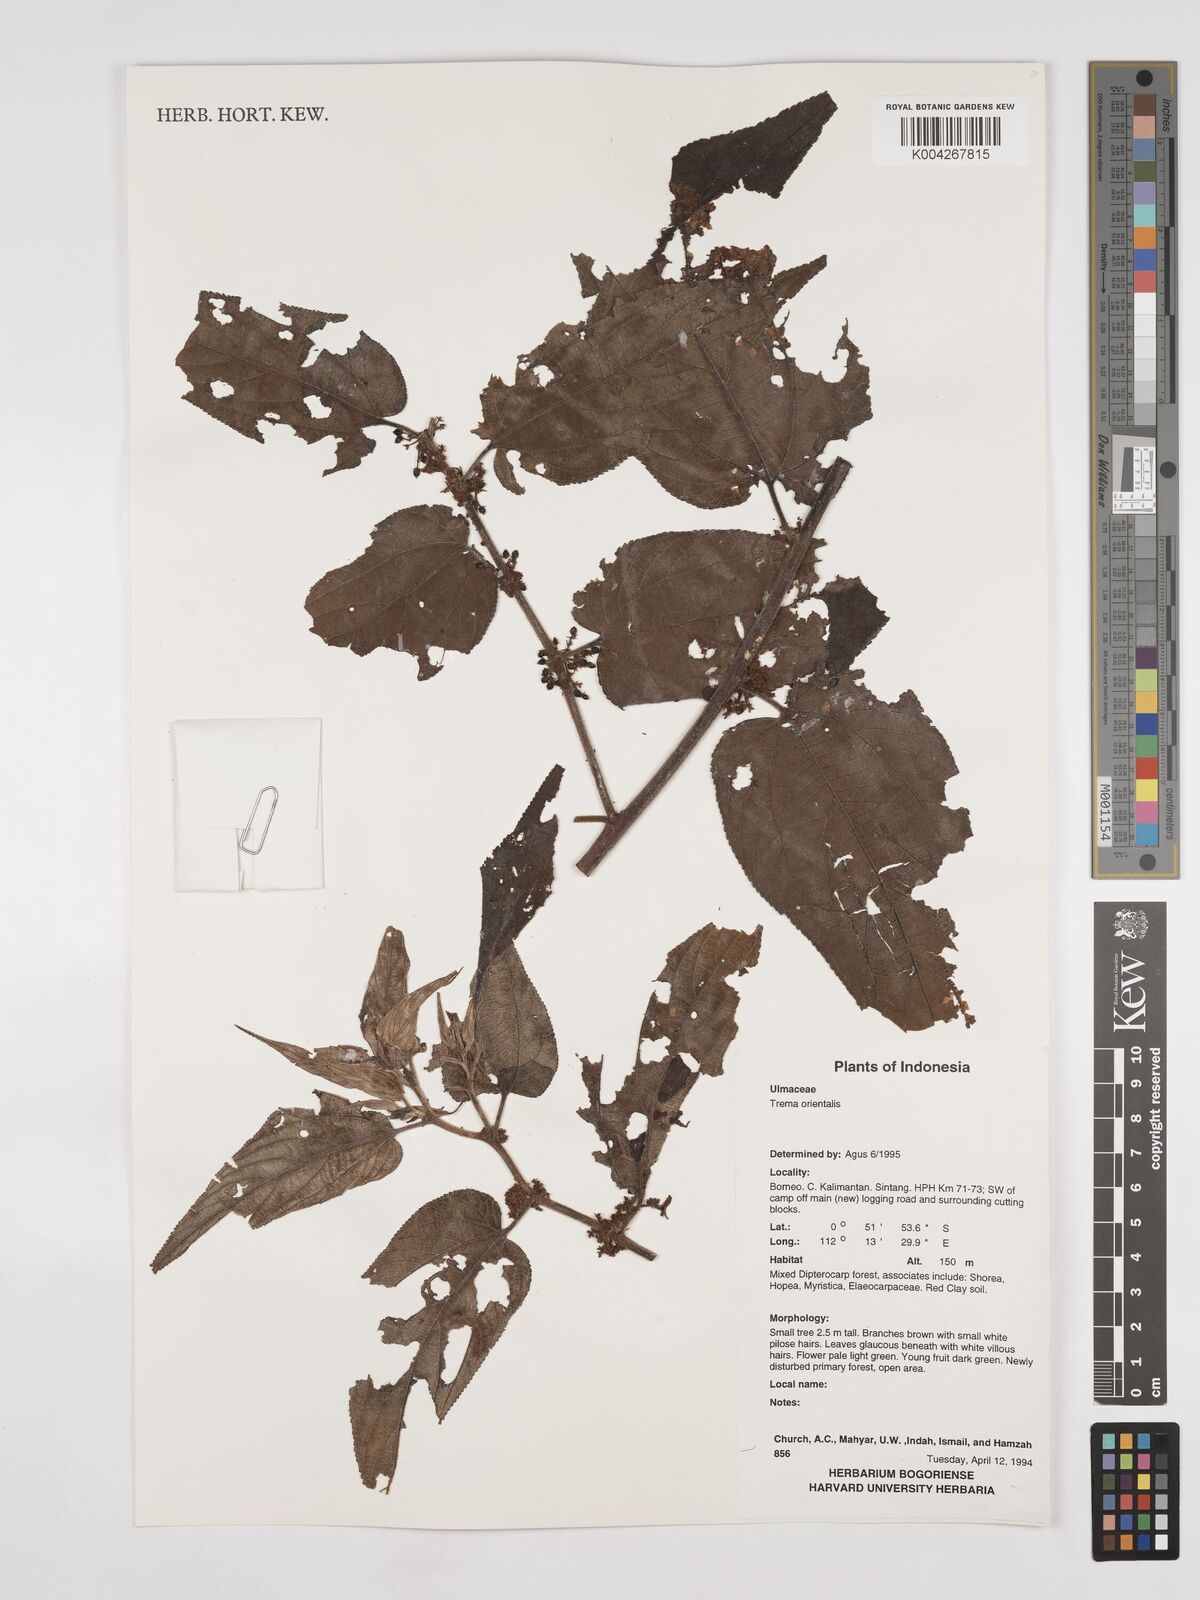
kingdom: Plantae
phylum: Tracheophyta
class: Magnoliopsida
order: Rosales
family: Cannabaceae
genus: Trema
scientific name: Trema orientale
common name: Indian charcoal tree
